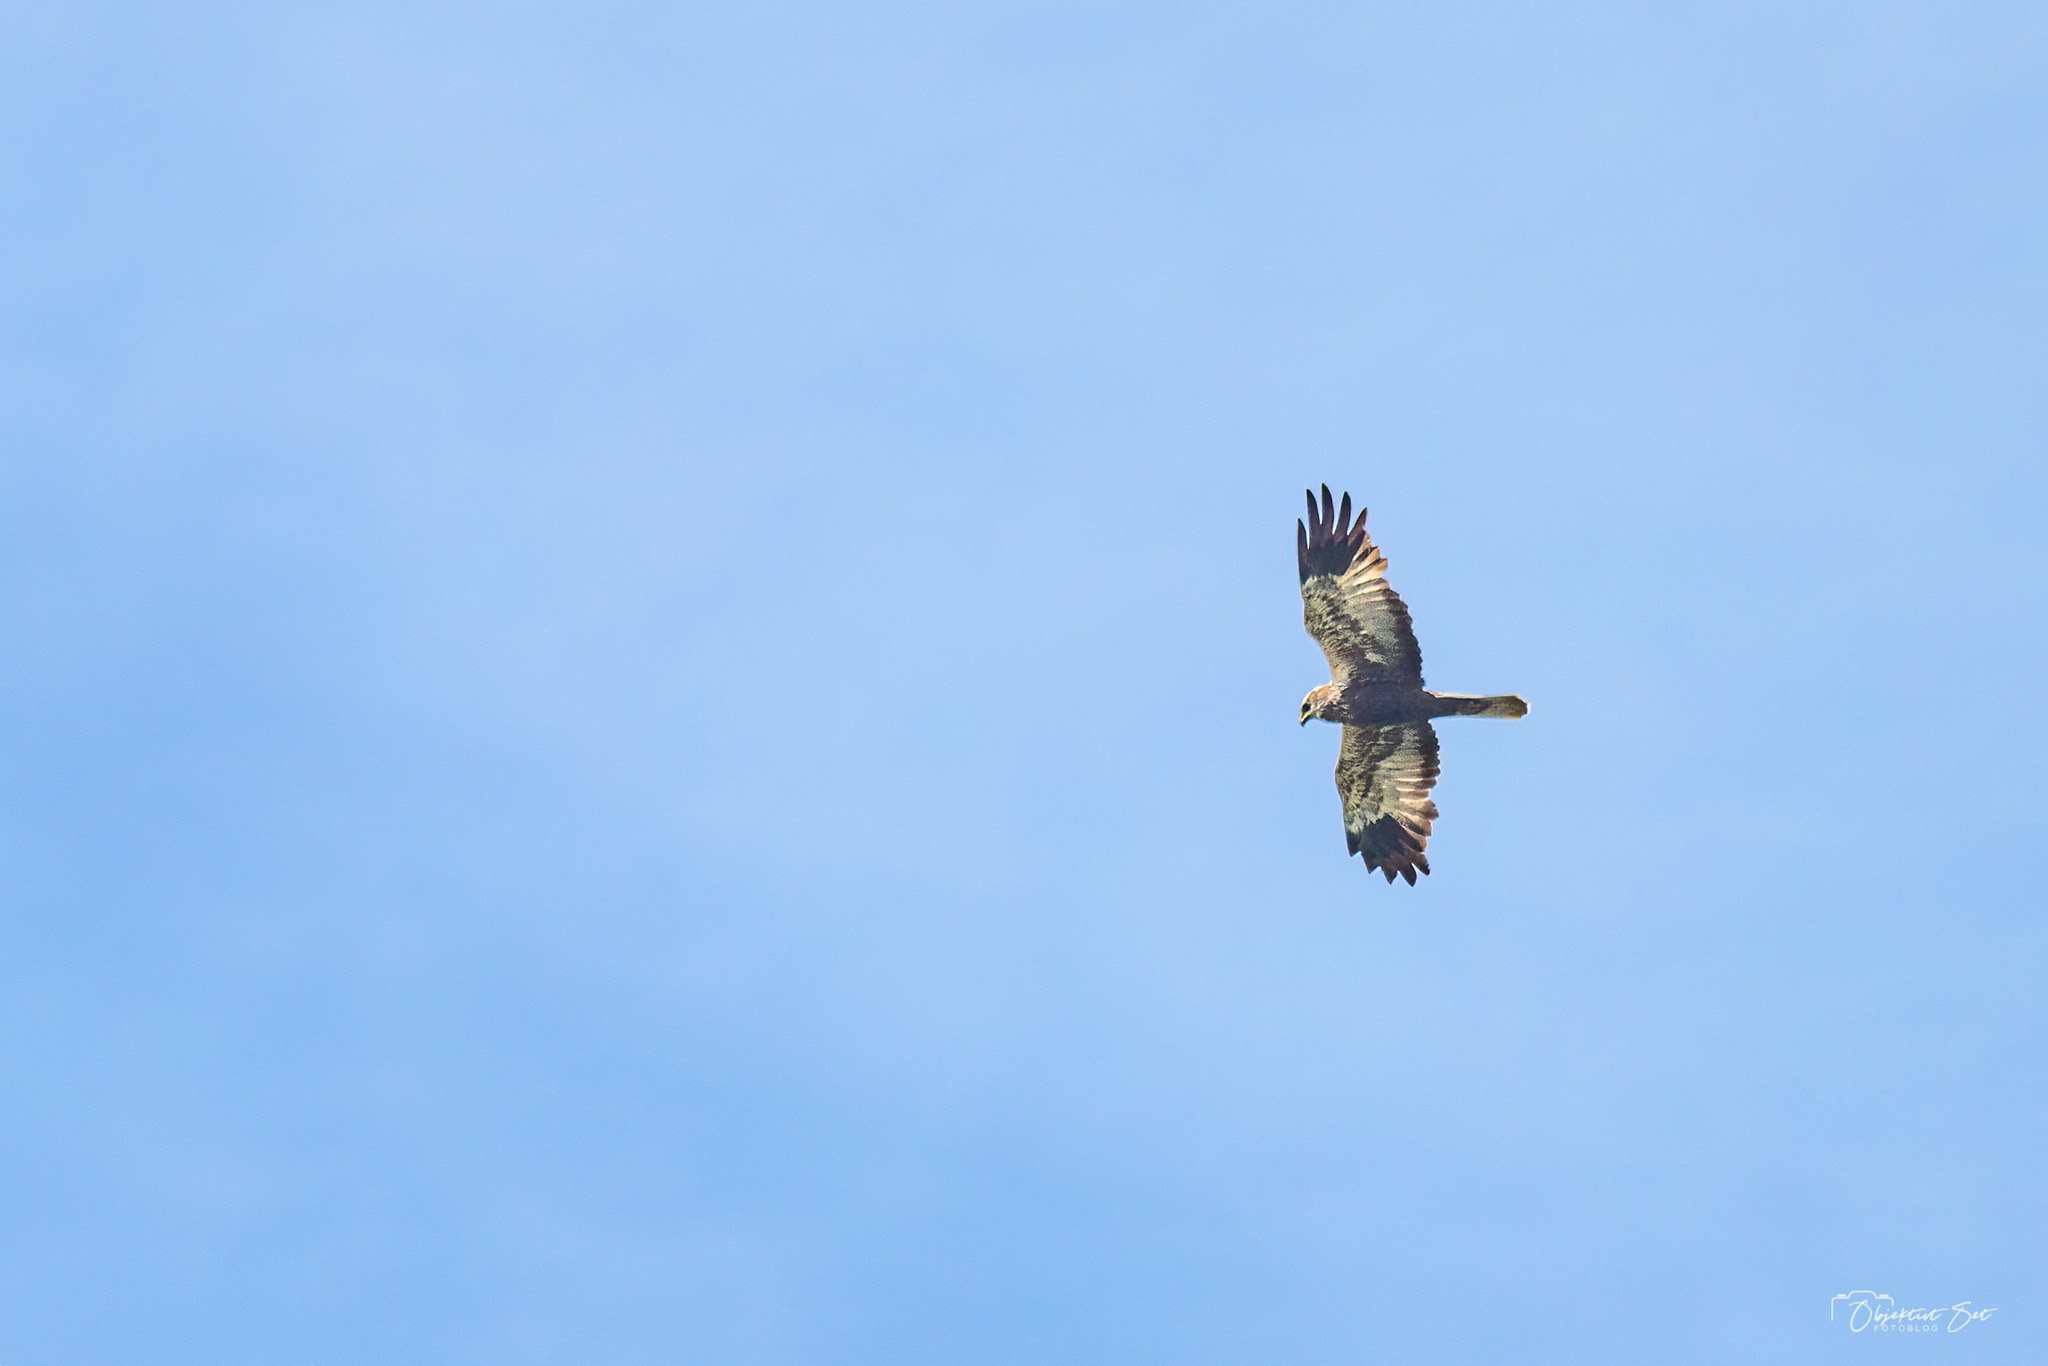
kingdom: Animalia
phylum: Chordata
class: Aves
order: Accipitriformes
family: Accipitridae
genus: Circus
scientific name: Circus aeruginosus
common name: Rørhøg
